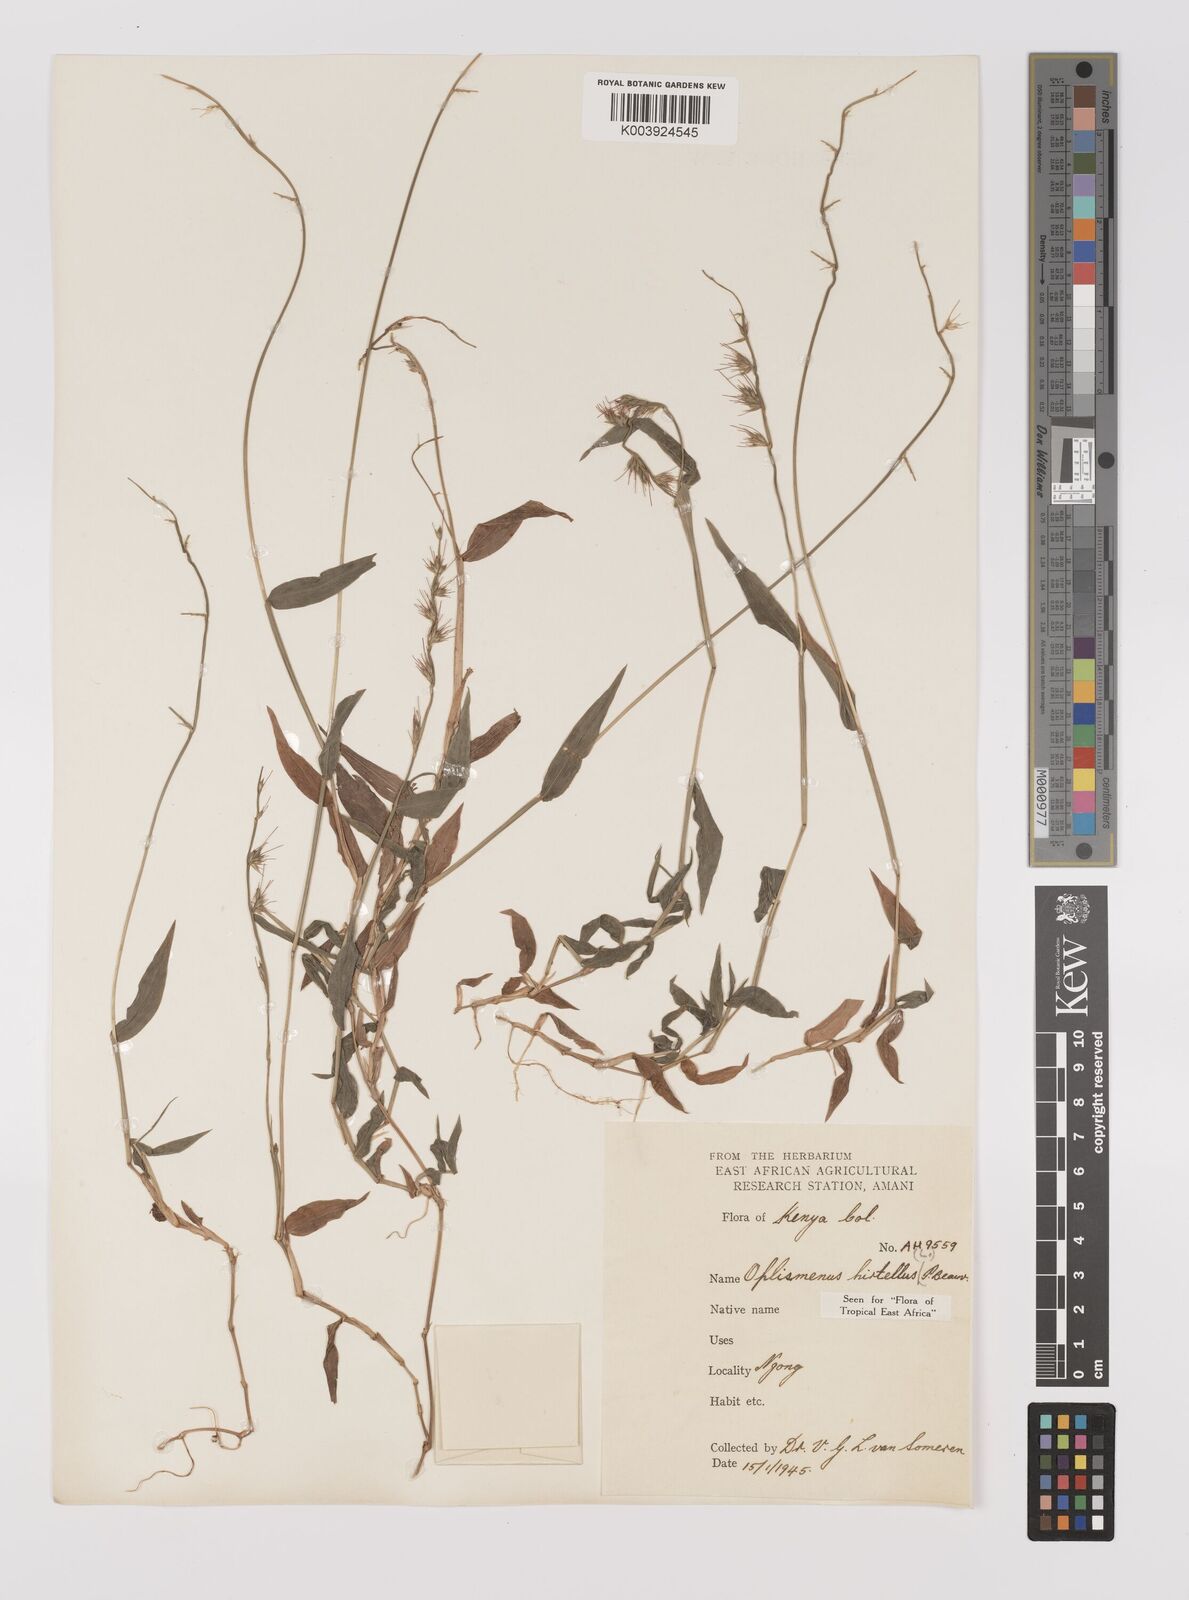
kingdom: Plantae
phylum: Tracheophyta
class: Liliopsida
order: Poales
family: Poaceae
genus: Oplismenus
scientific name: Oplismenus hirtellus
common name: Basketgrass
